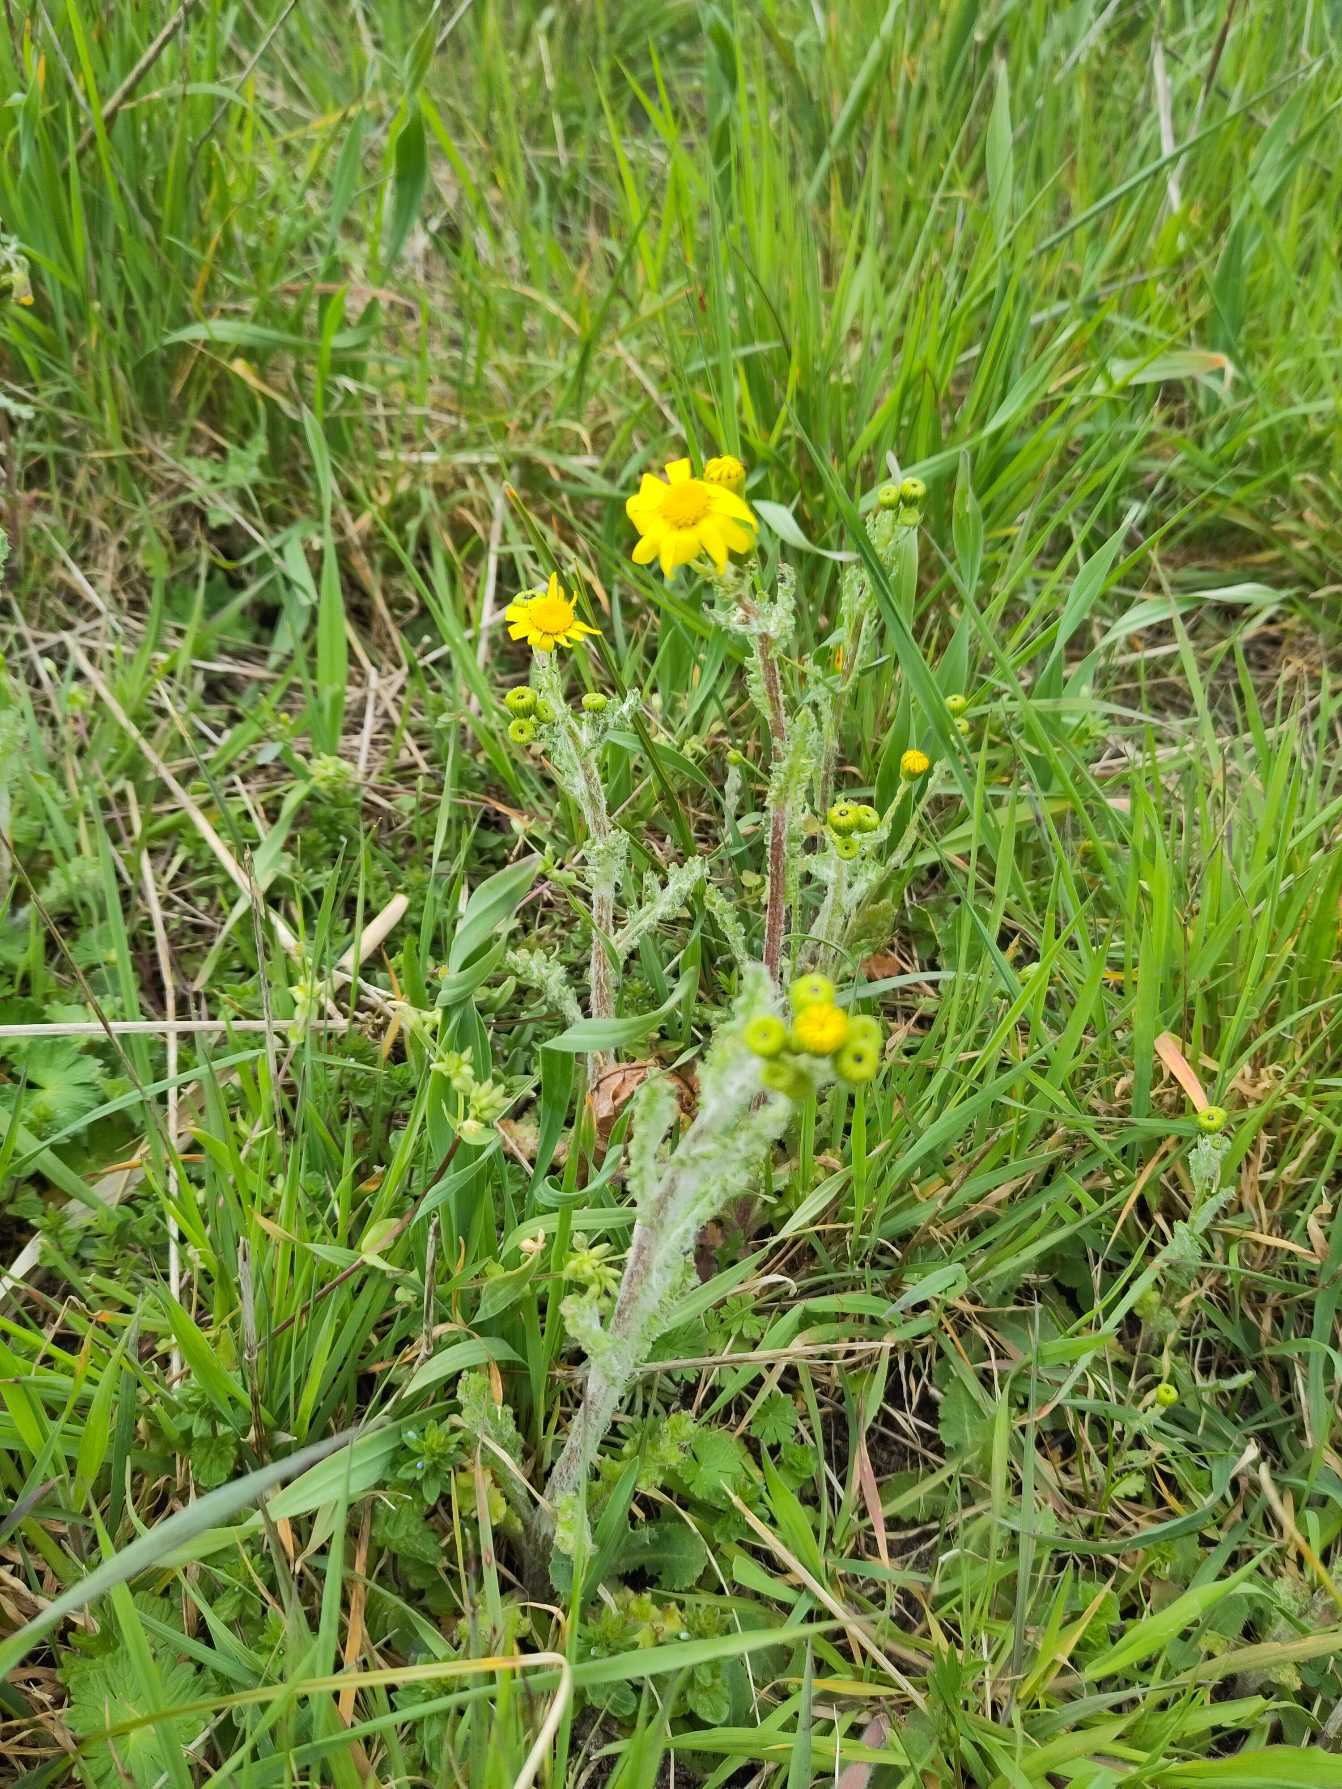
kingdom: Plantae
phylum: Tracheophyta
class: Magnoliopsida
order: Asterales
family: Asteraceae
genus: Senecio
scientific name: Senecio leucanthemifolius
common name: Vår-brandbæger
